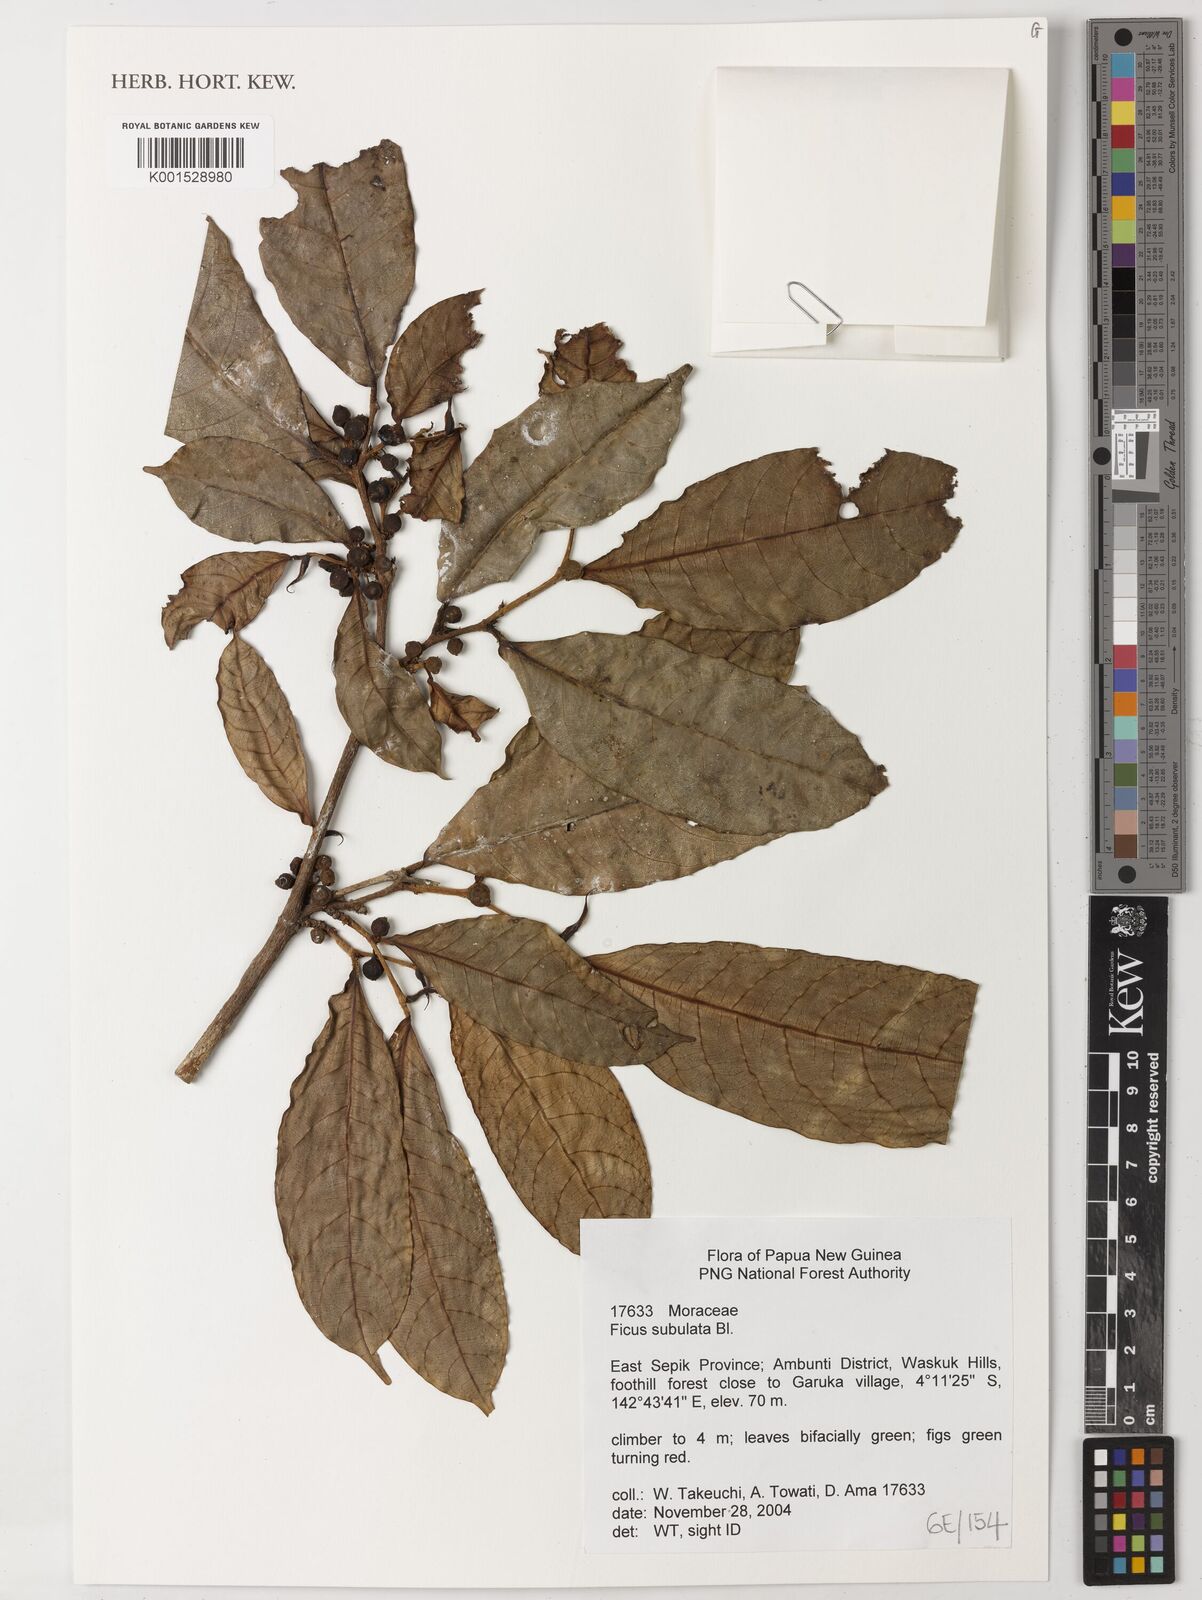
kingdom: Plantae
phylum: Tracheophyta
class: Magnoliopsida
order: Rosales
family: Moraceae
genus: Ficus
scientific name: Ficus subulata
